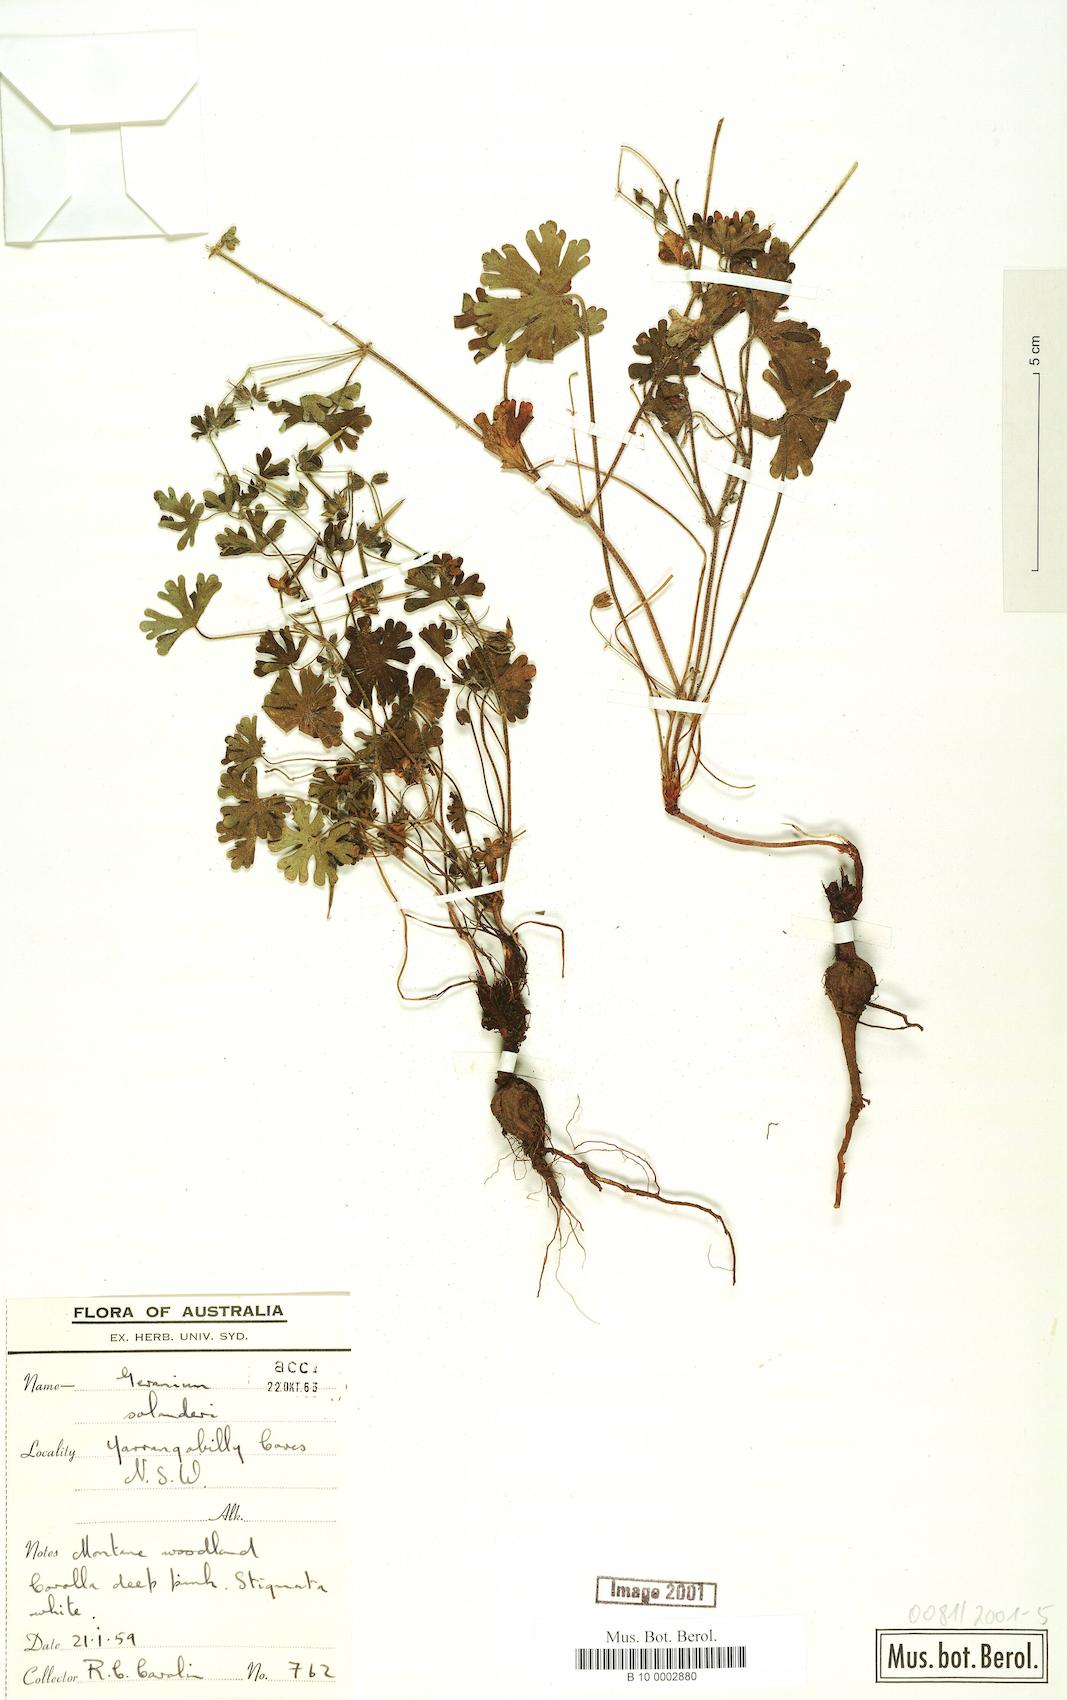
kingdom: Plantae
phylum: Tracheophyta
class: Magnoliopsida
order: Geraniales
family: Geraniaceae
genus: Geranium
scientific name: Geranium solanderi
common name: Solander's geranium
